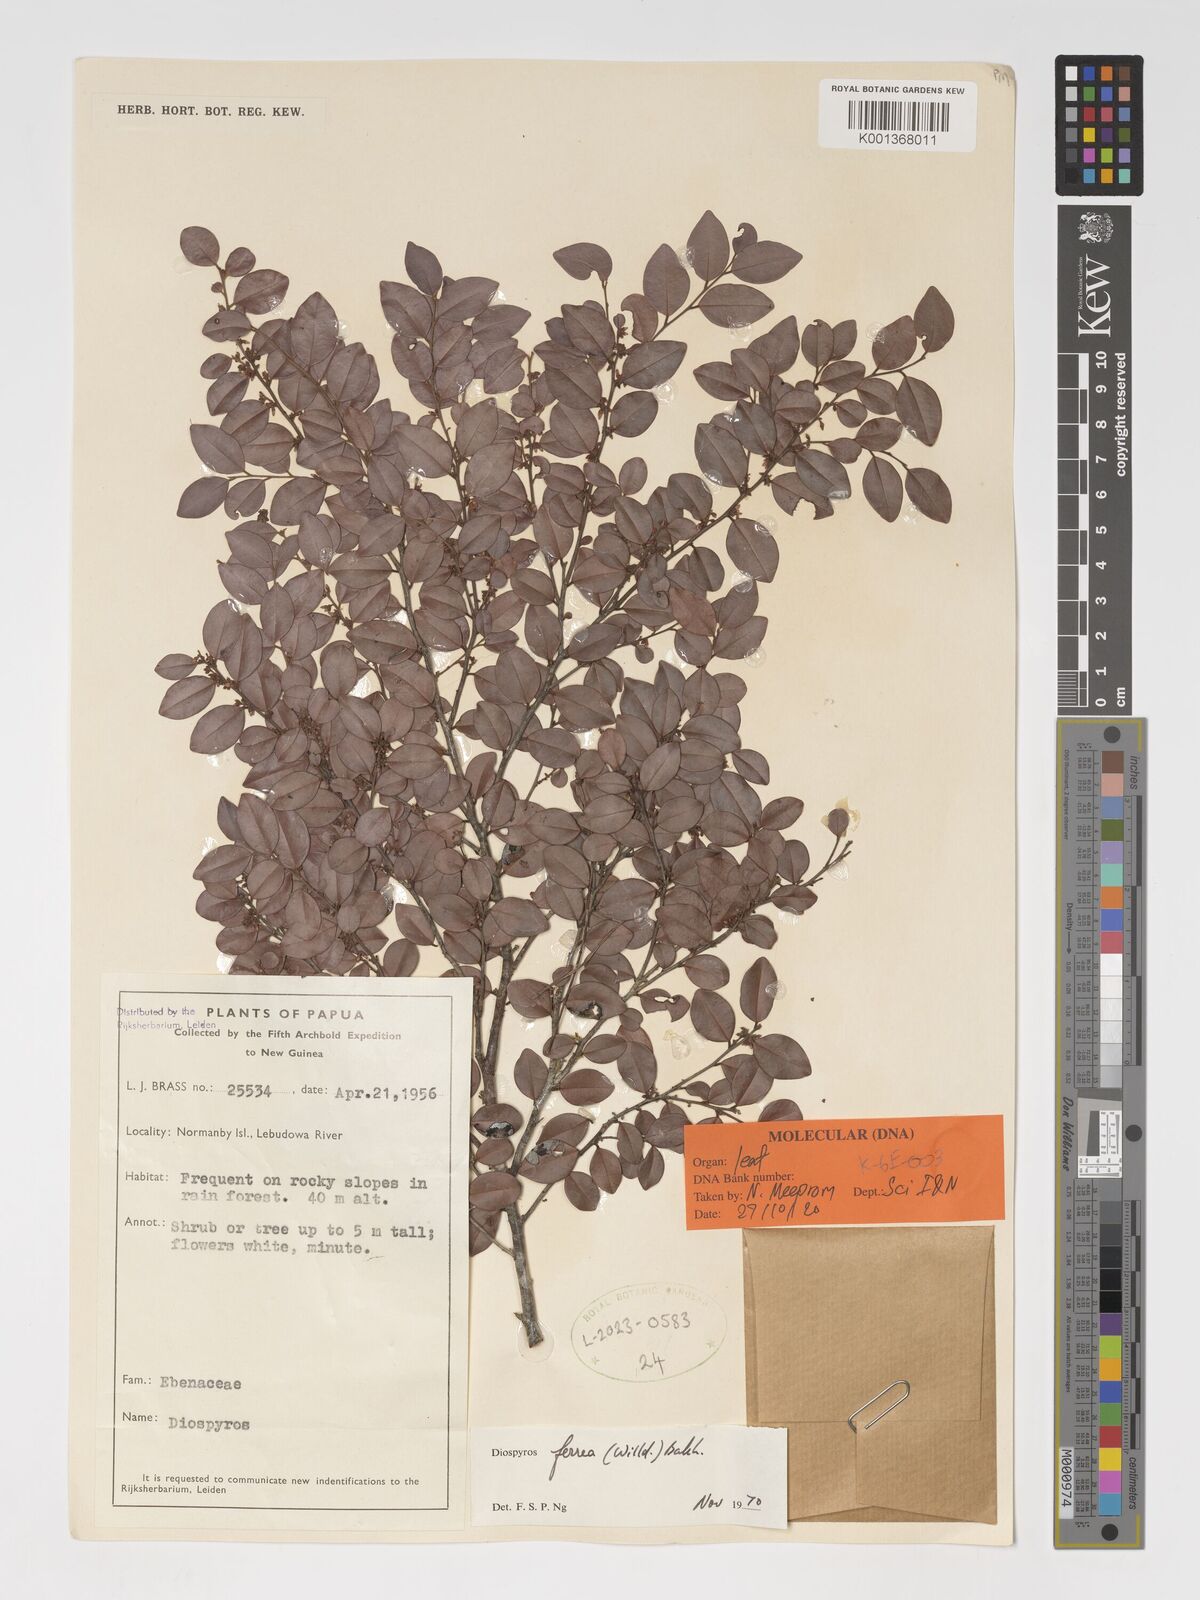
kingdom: Plantae
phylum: Tracheophyta
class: Magnoliopsida
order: Ericales
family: Ebenaceae
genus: Diospyros
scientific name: Diospyros ferrea
